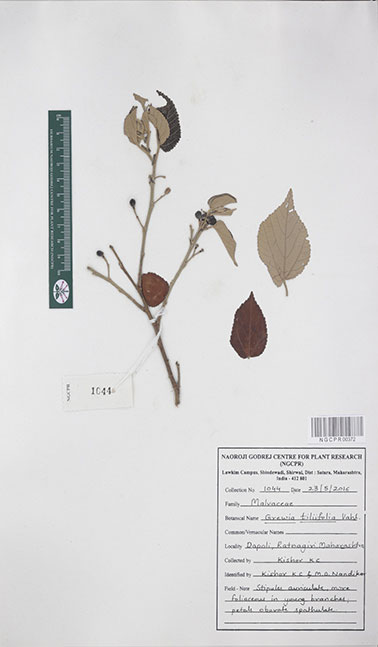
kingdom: Plantae
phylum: Tracheophyta
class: Magnoliopsida
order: Malvales
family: Malvaceae
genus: Grewia
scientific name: Grewia tiliifolia
